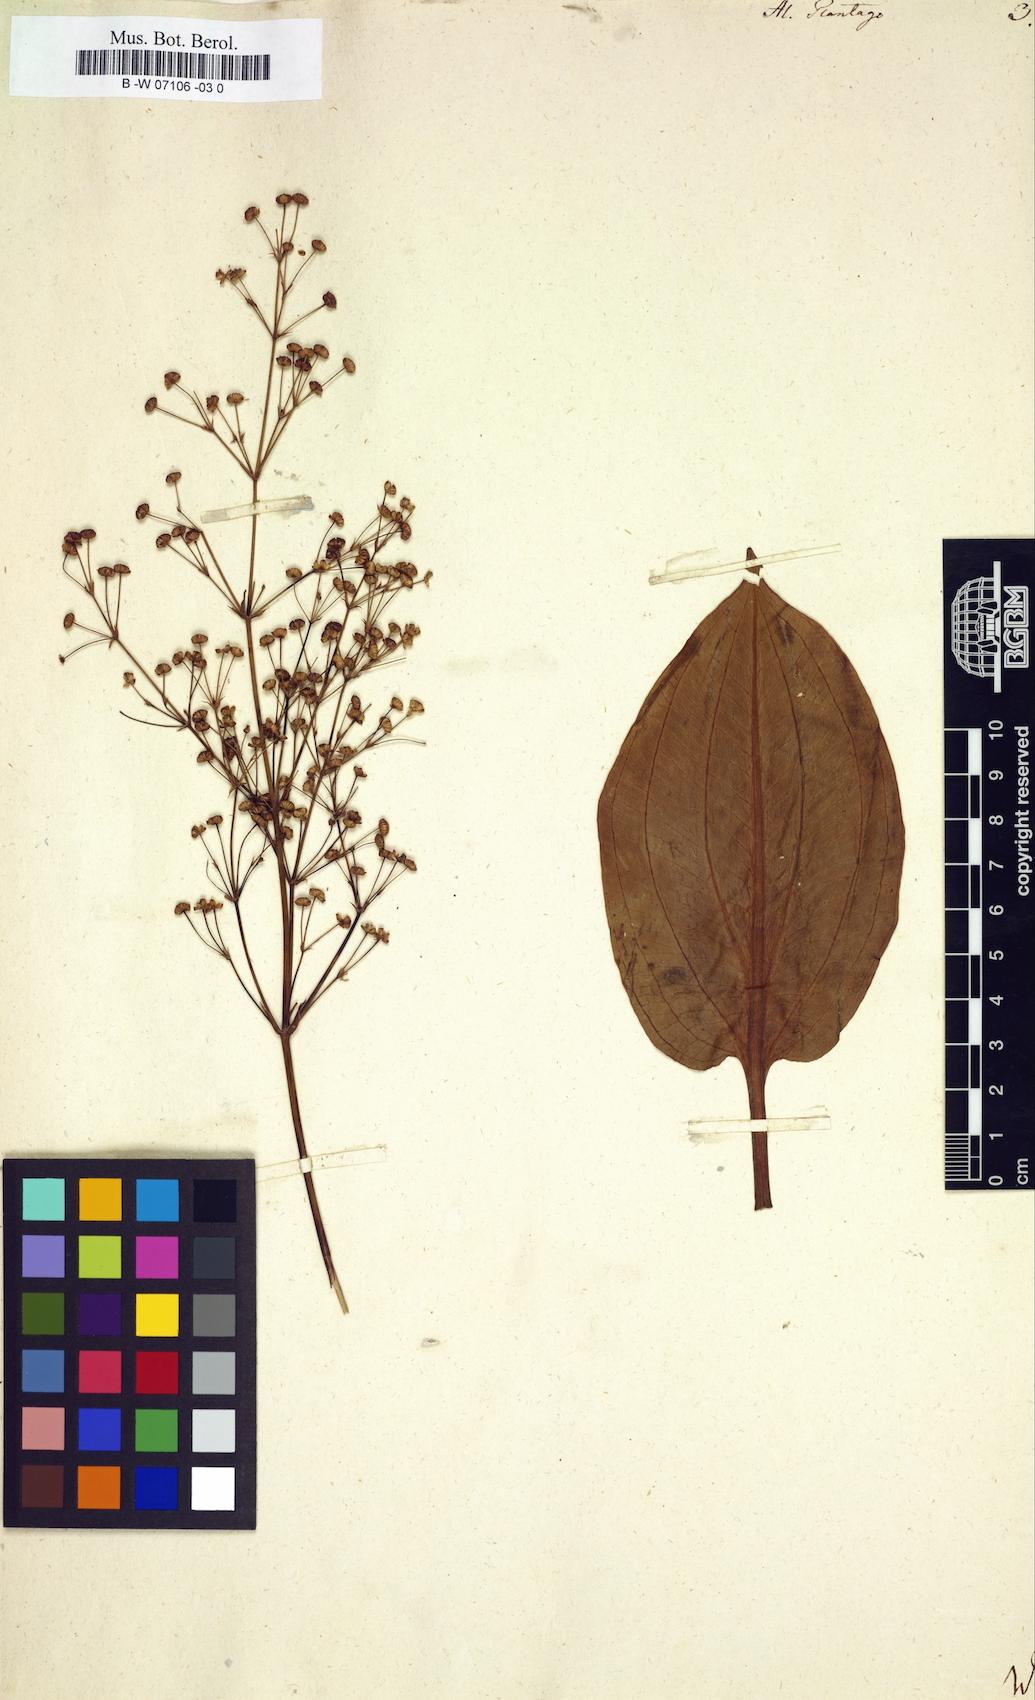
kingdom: Plantae
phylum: Tracheophyta
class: Liliopsida
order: Alismatales
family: Alismataceae
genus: Alisma
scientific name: Alisma plantago-aquatica
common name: Water-plantain
